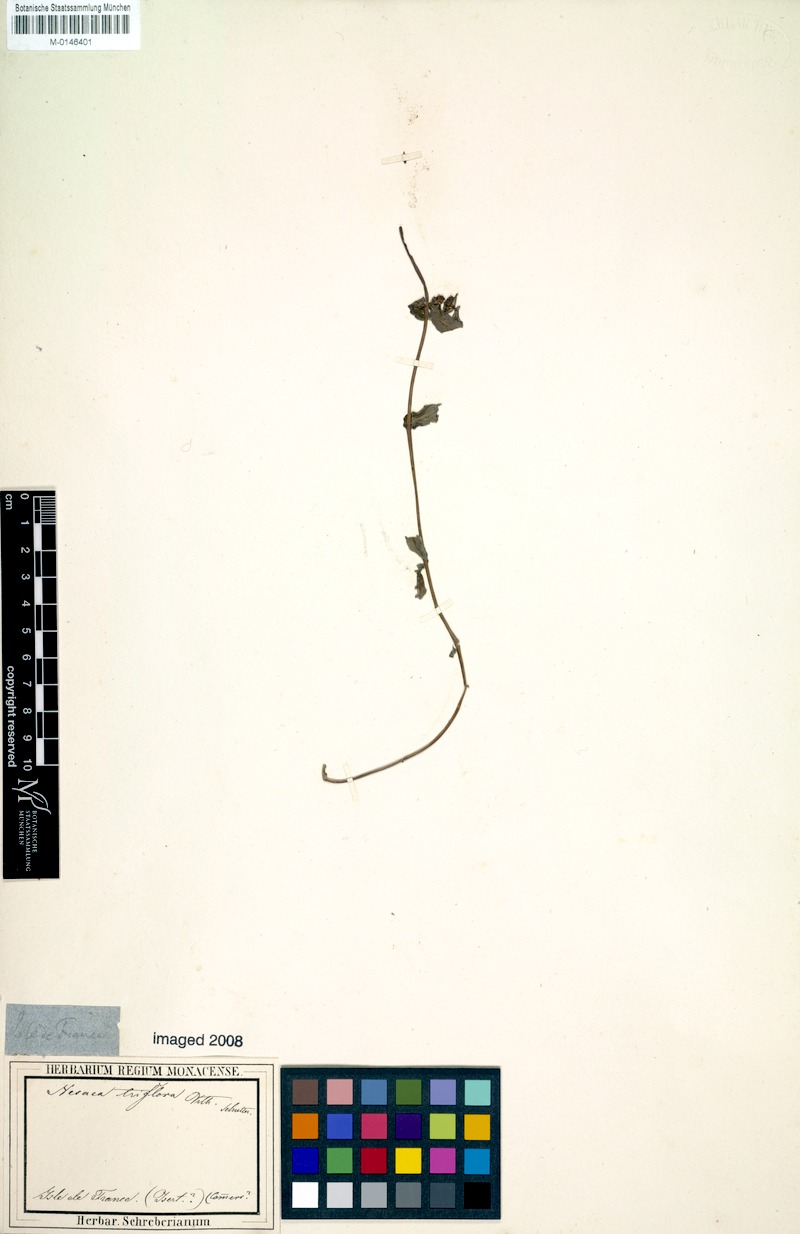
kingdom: Plantae
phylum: Tracheophyta
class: Magnoliopsida
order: Myrtales
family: Lythraceae
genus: Ammannia
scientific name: Ammannia capitellata
